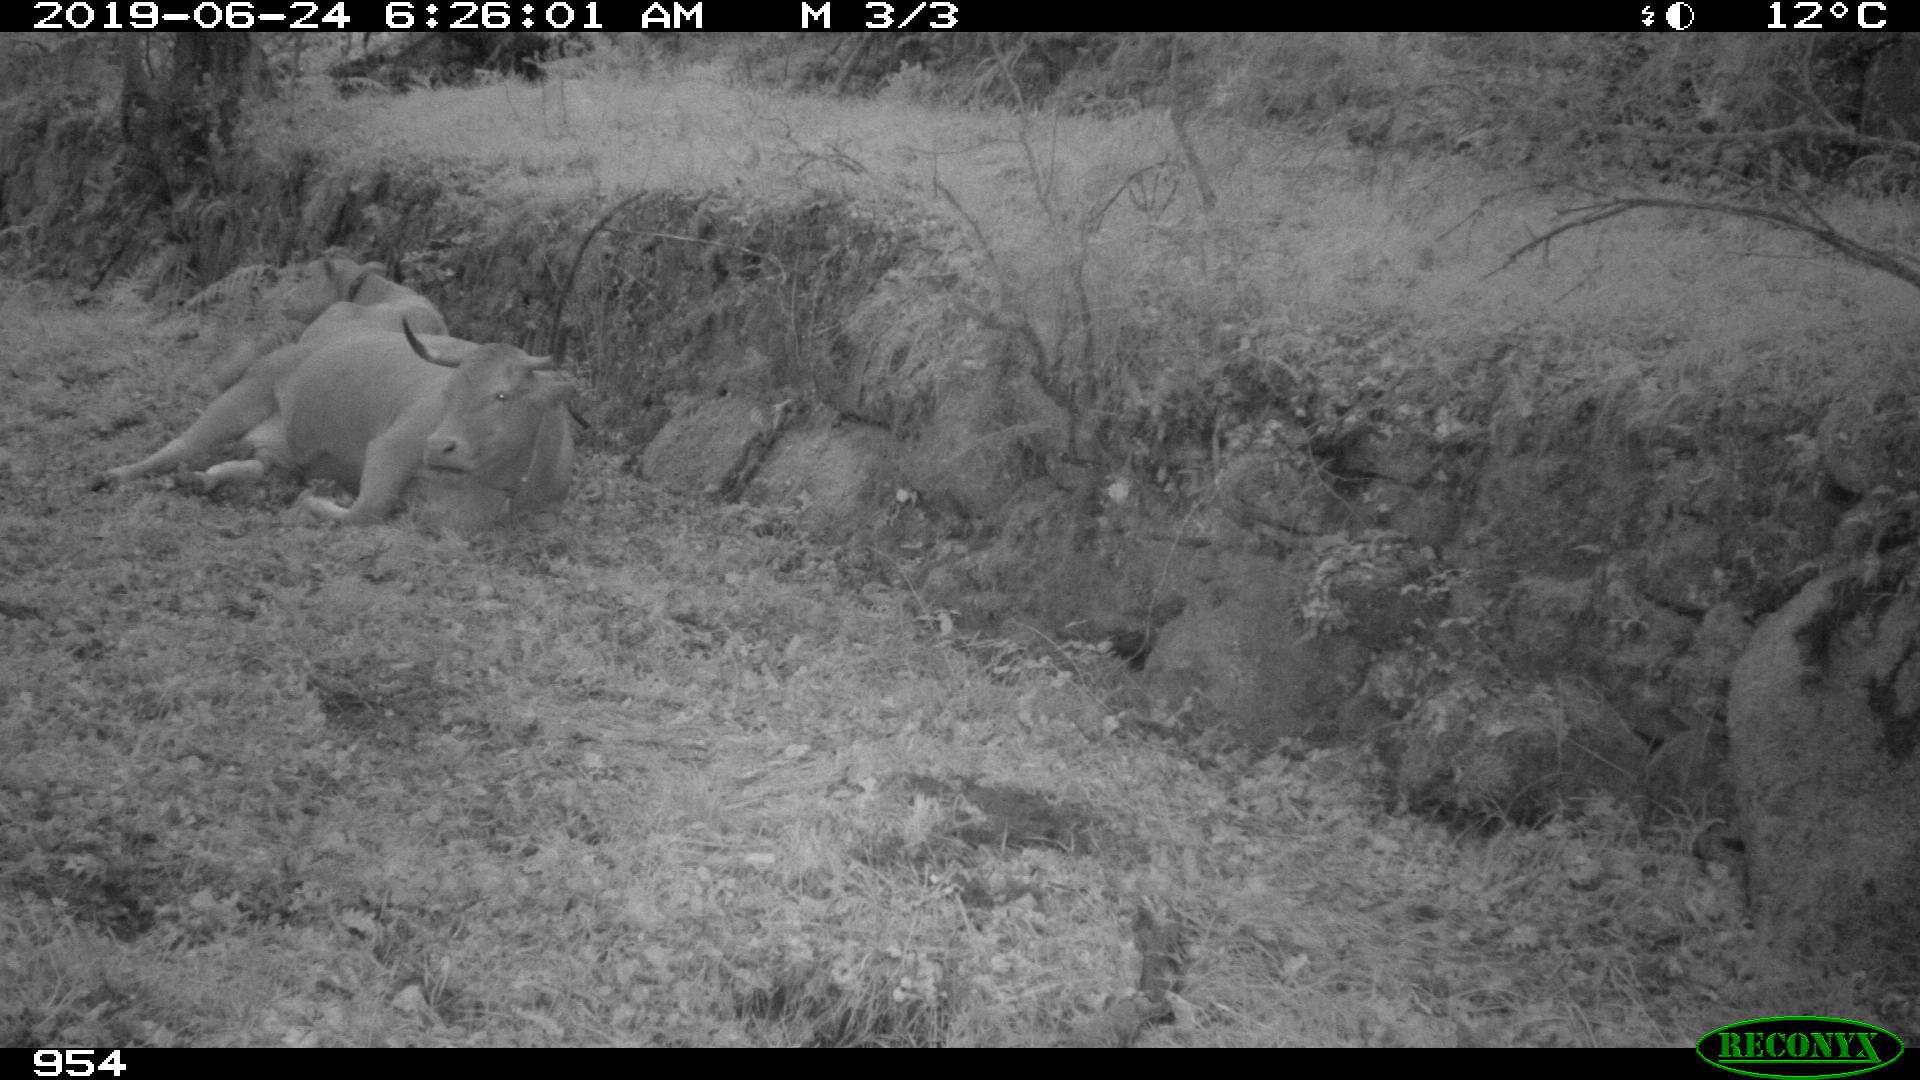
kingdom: Animalia
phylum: Chordata
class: Mammalia
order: Artiodactyla
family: Bovidae
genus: Bos
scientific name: Bos taurus
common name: Domesticated cattle
